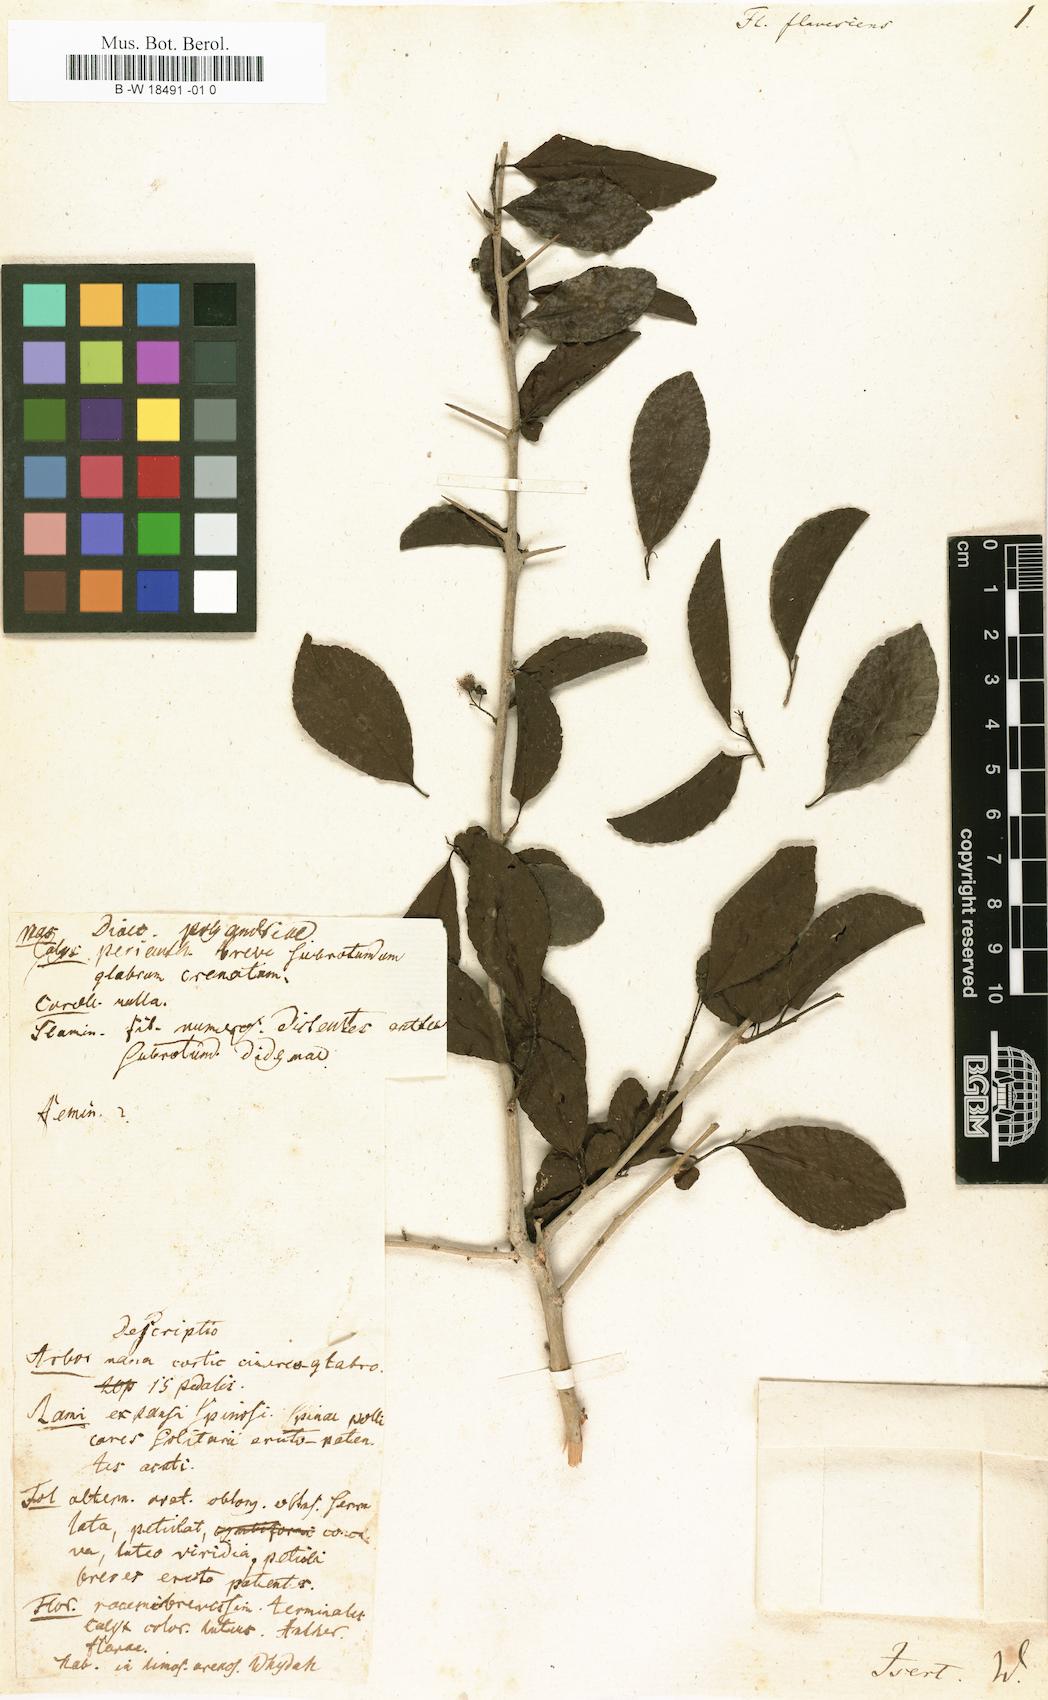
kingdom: Plantae
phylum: Tracheophyta
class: Magnoliopsida
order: Malpighiales
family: Salicaceae
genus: Flacourtia
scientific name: Flacourtia indica
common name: Governor's plum
